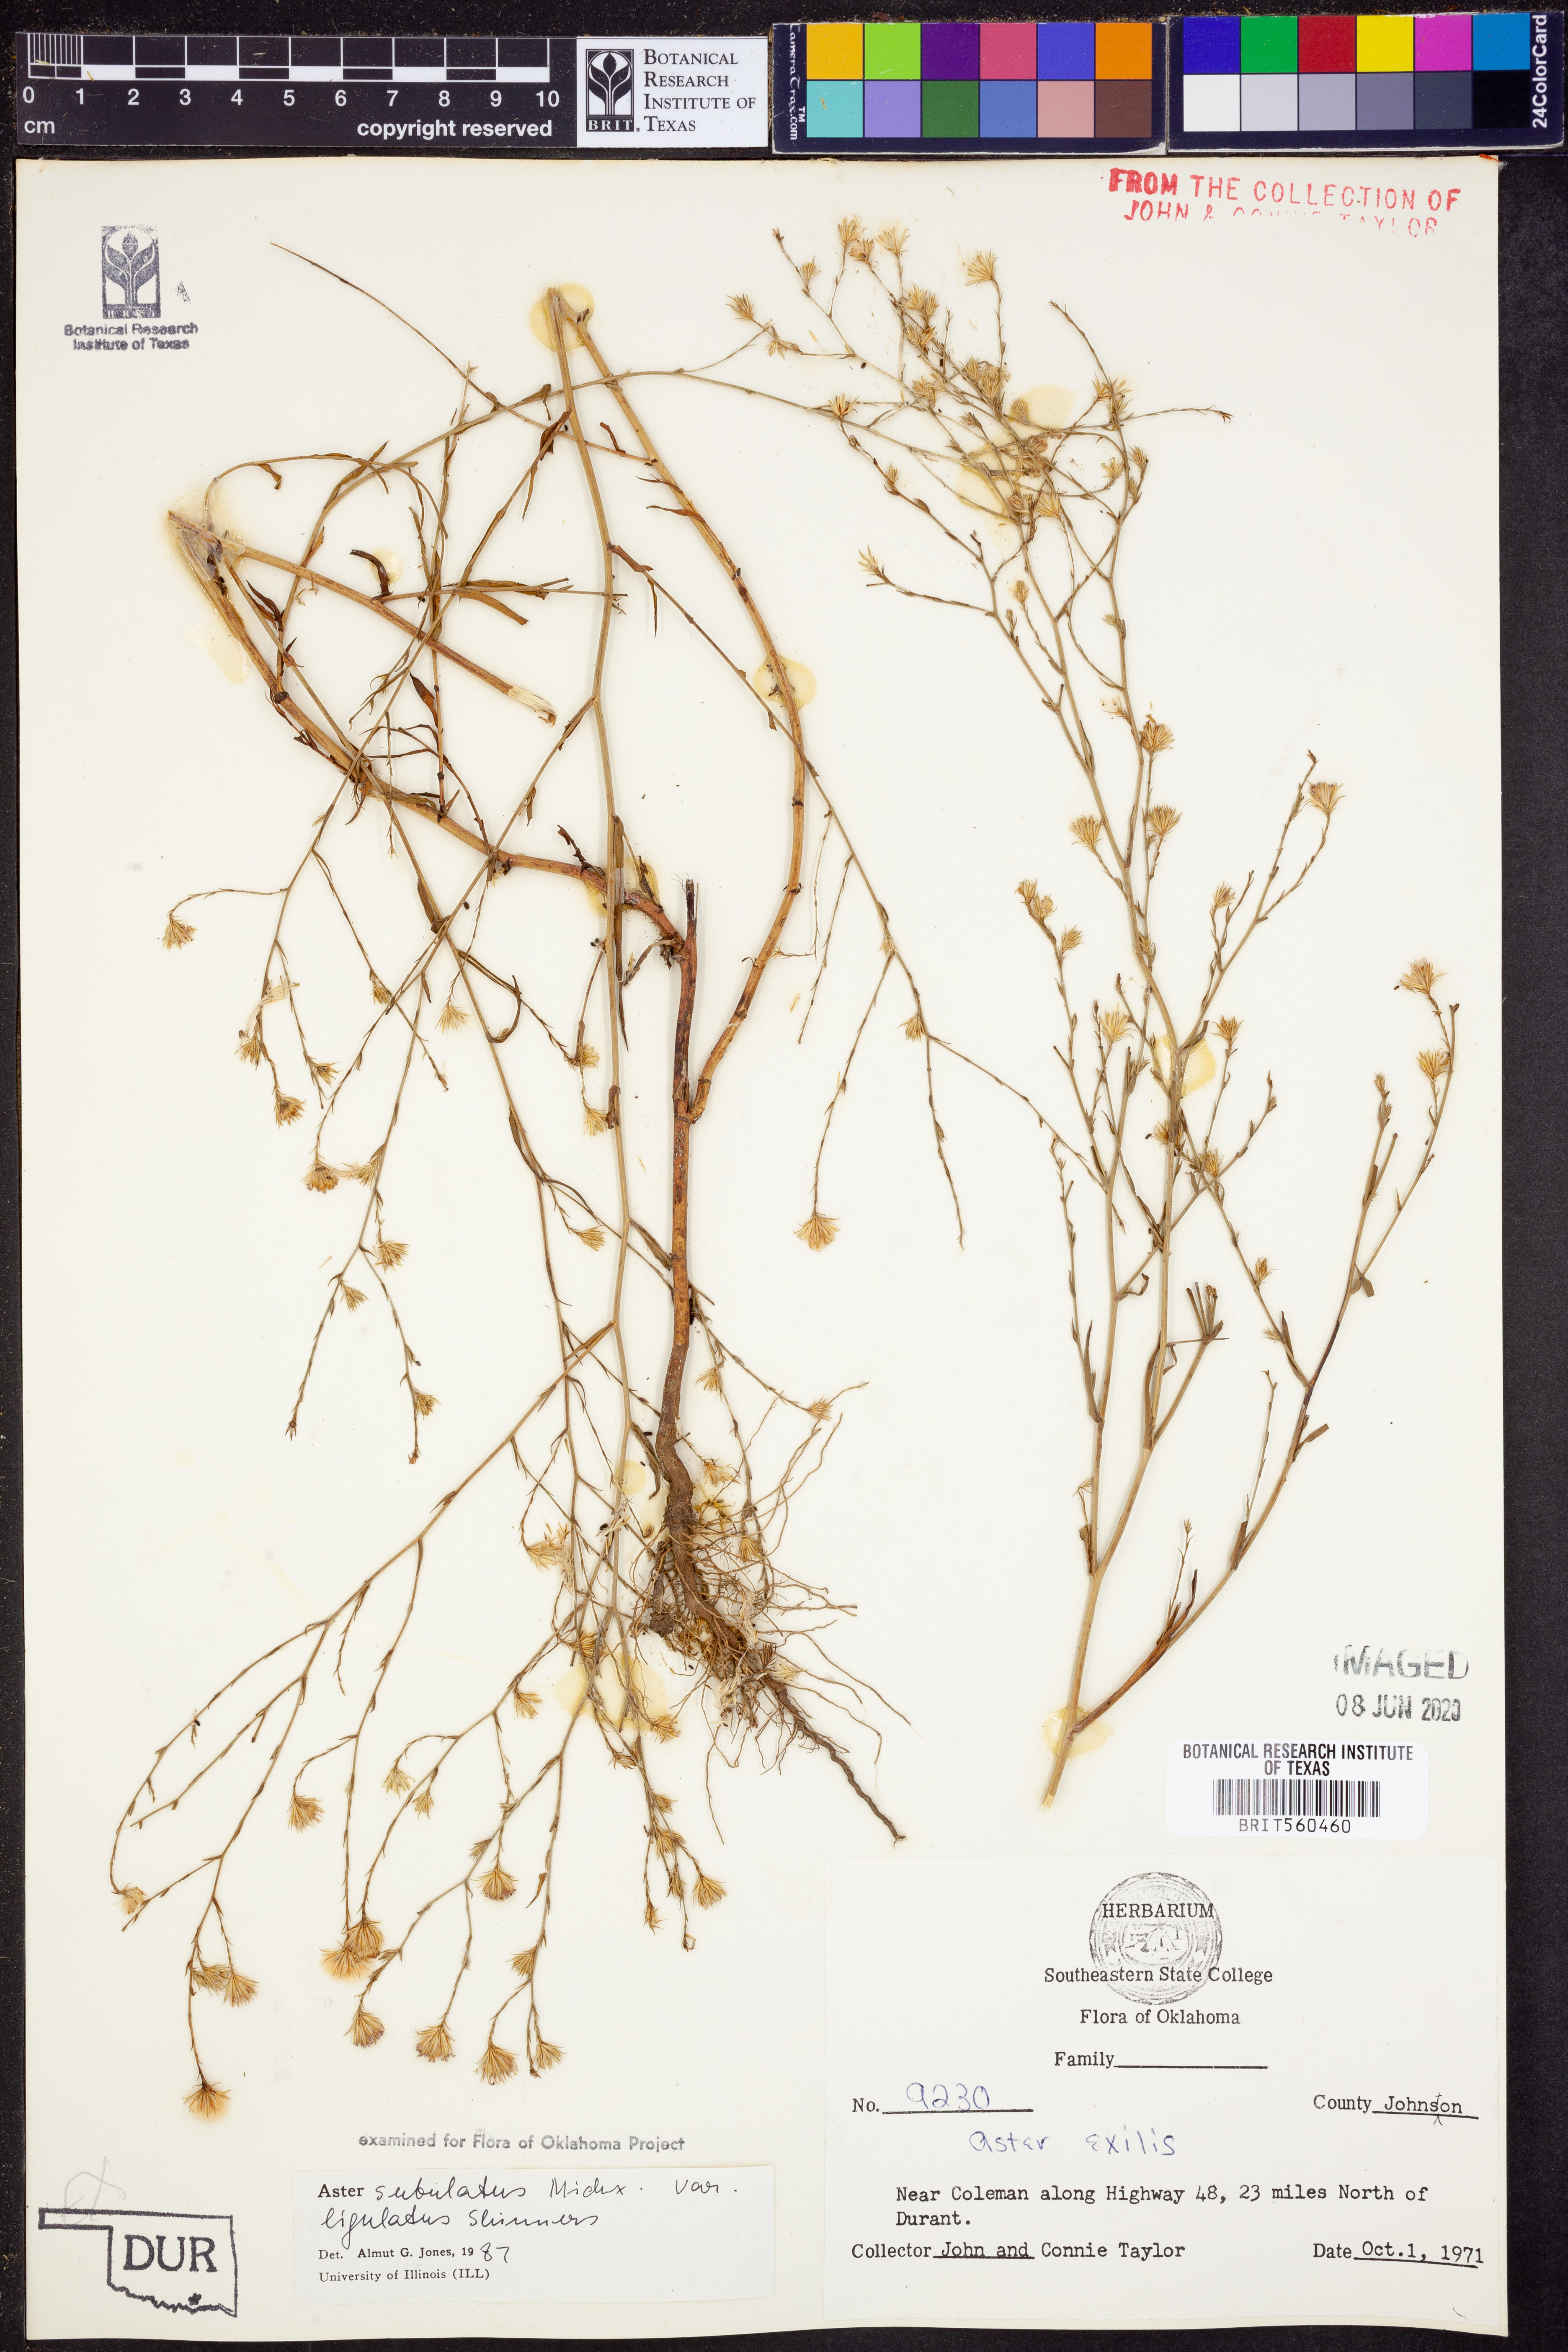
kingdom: Plantae
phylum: Tracheophyta
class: Magnoliopsida
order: Asterales
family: Asteraceae
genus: Symphyotrichum
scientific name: Symphyotrichum divaricatum
